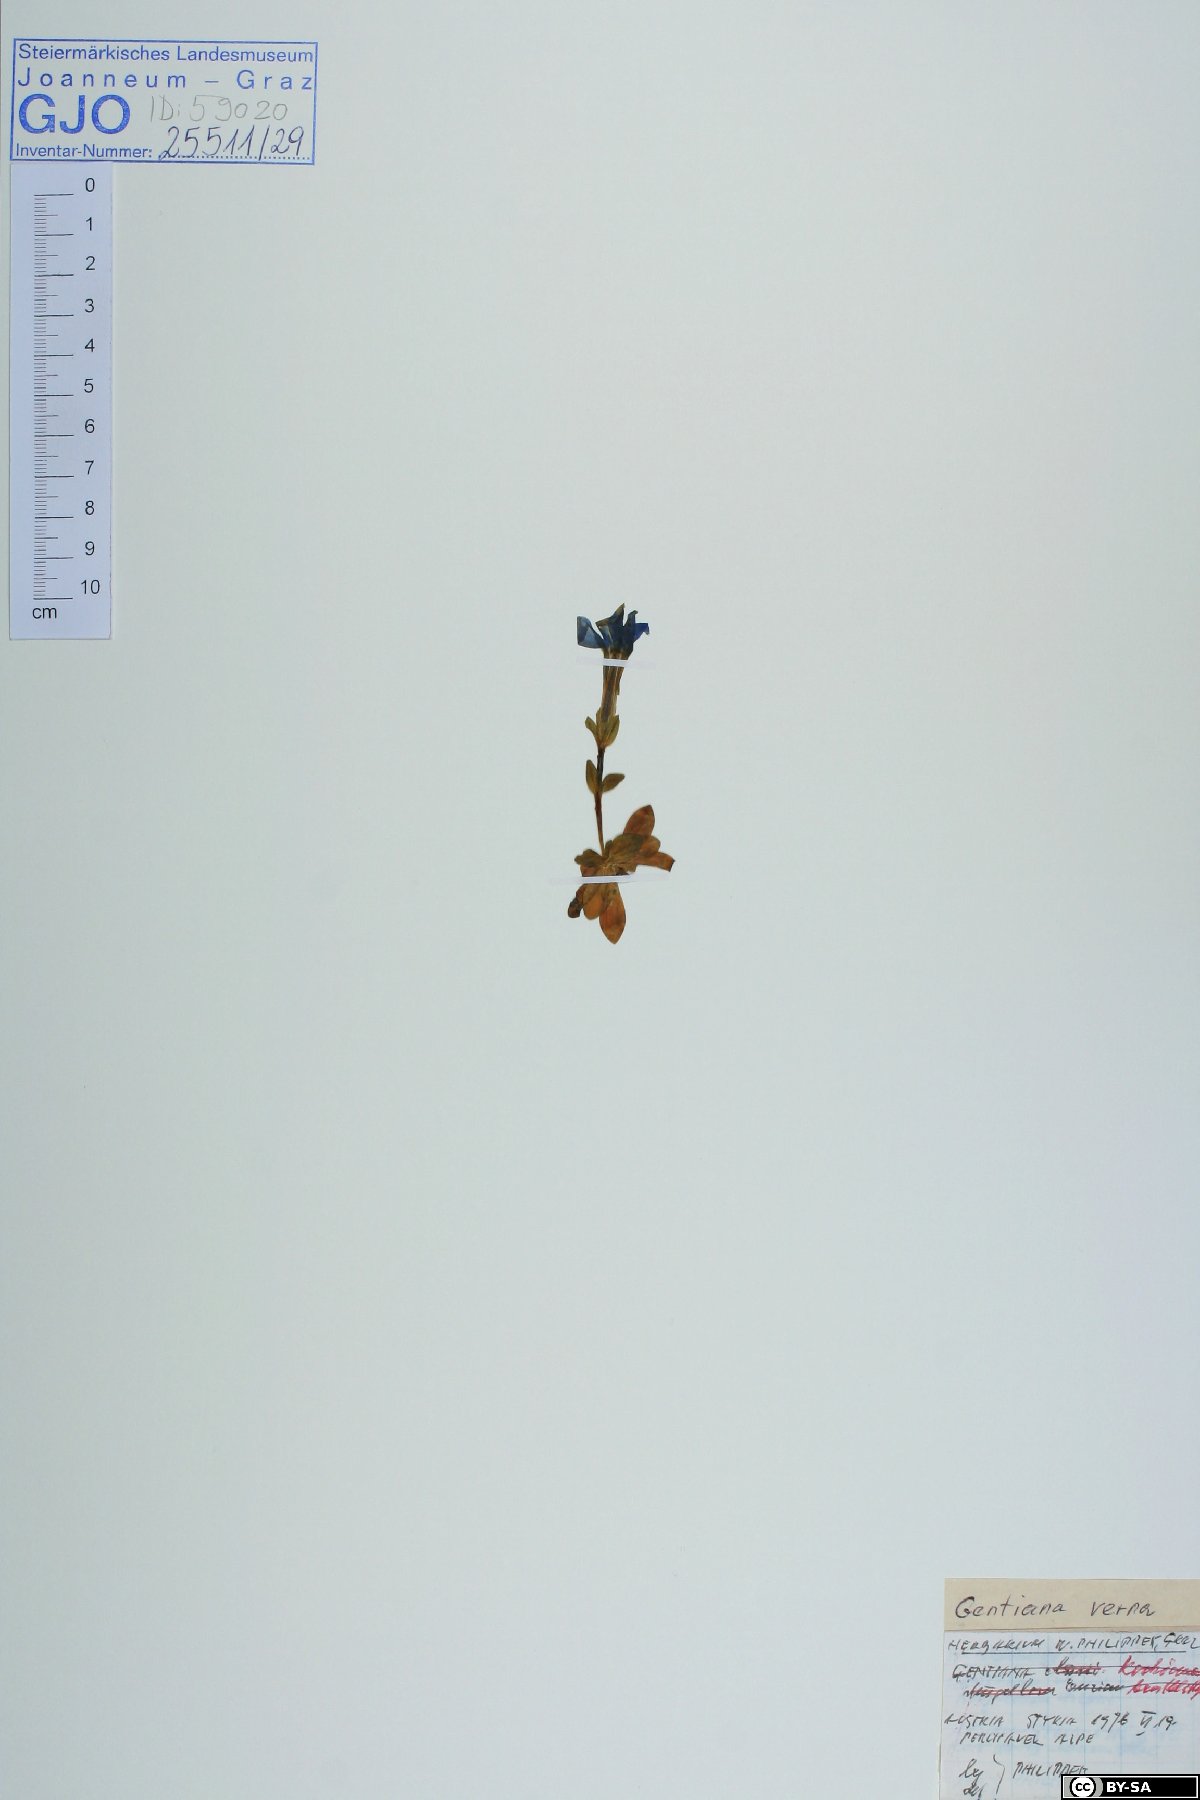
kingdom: Plantae
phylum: Tracheophyta
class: Magnoliopsida
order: Gentianales
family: Gentianaceae
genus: Gentiana
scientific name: Gentiana verna
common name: Spring gentian
